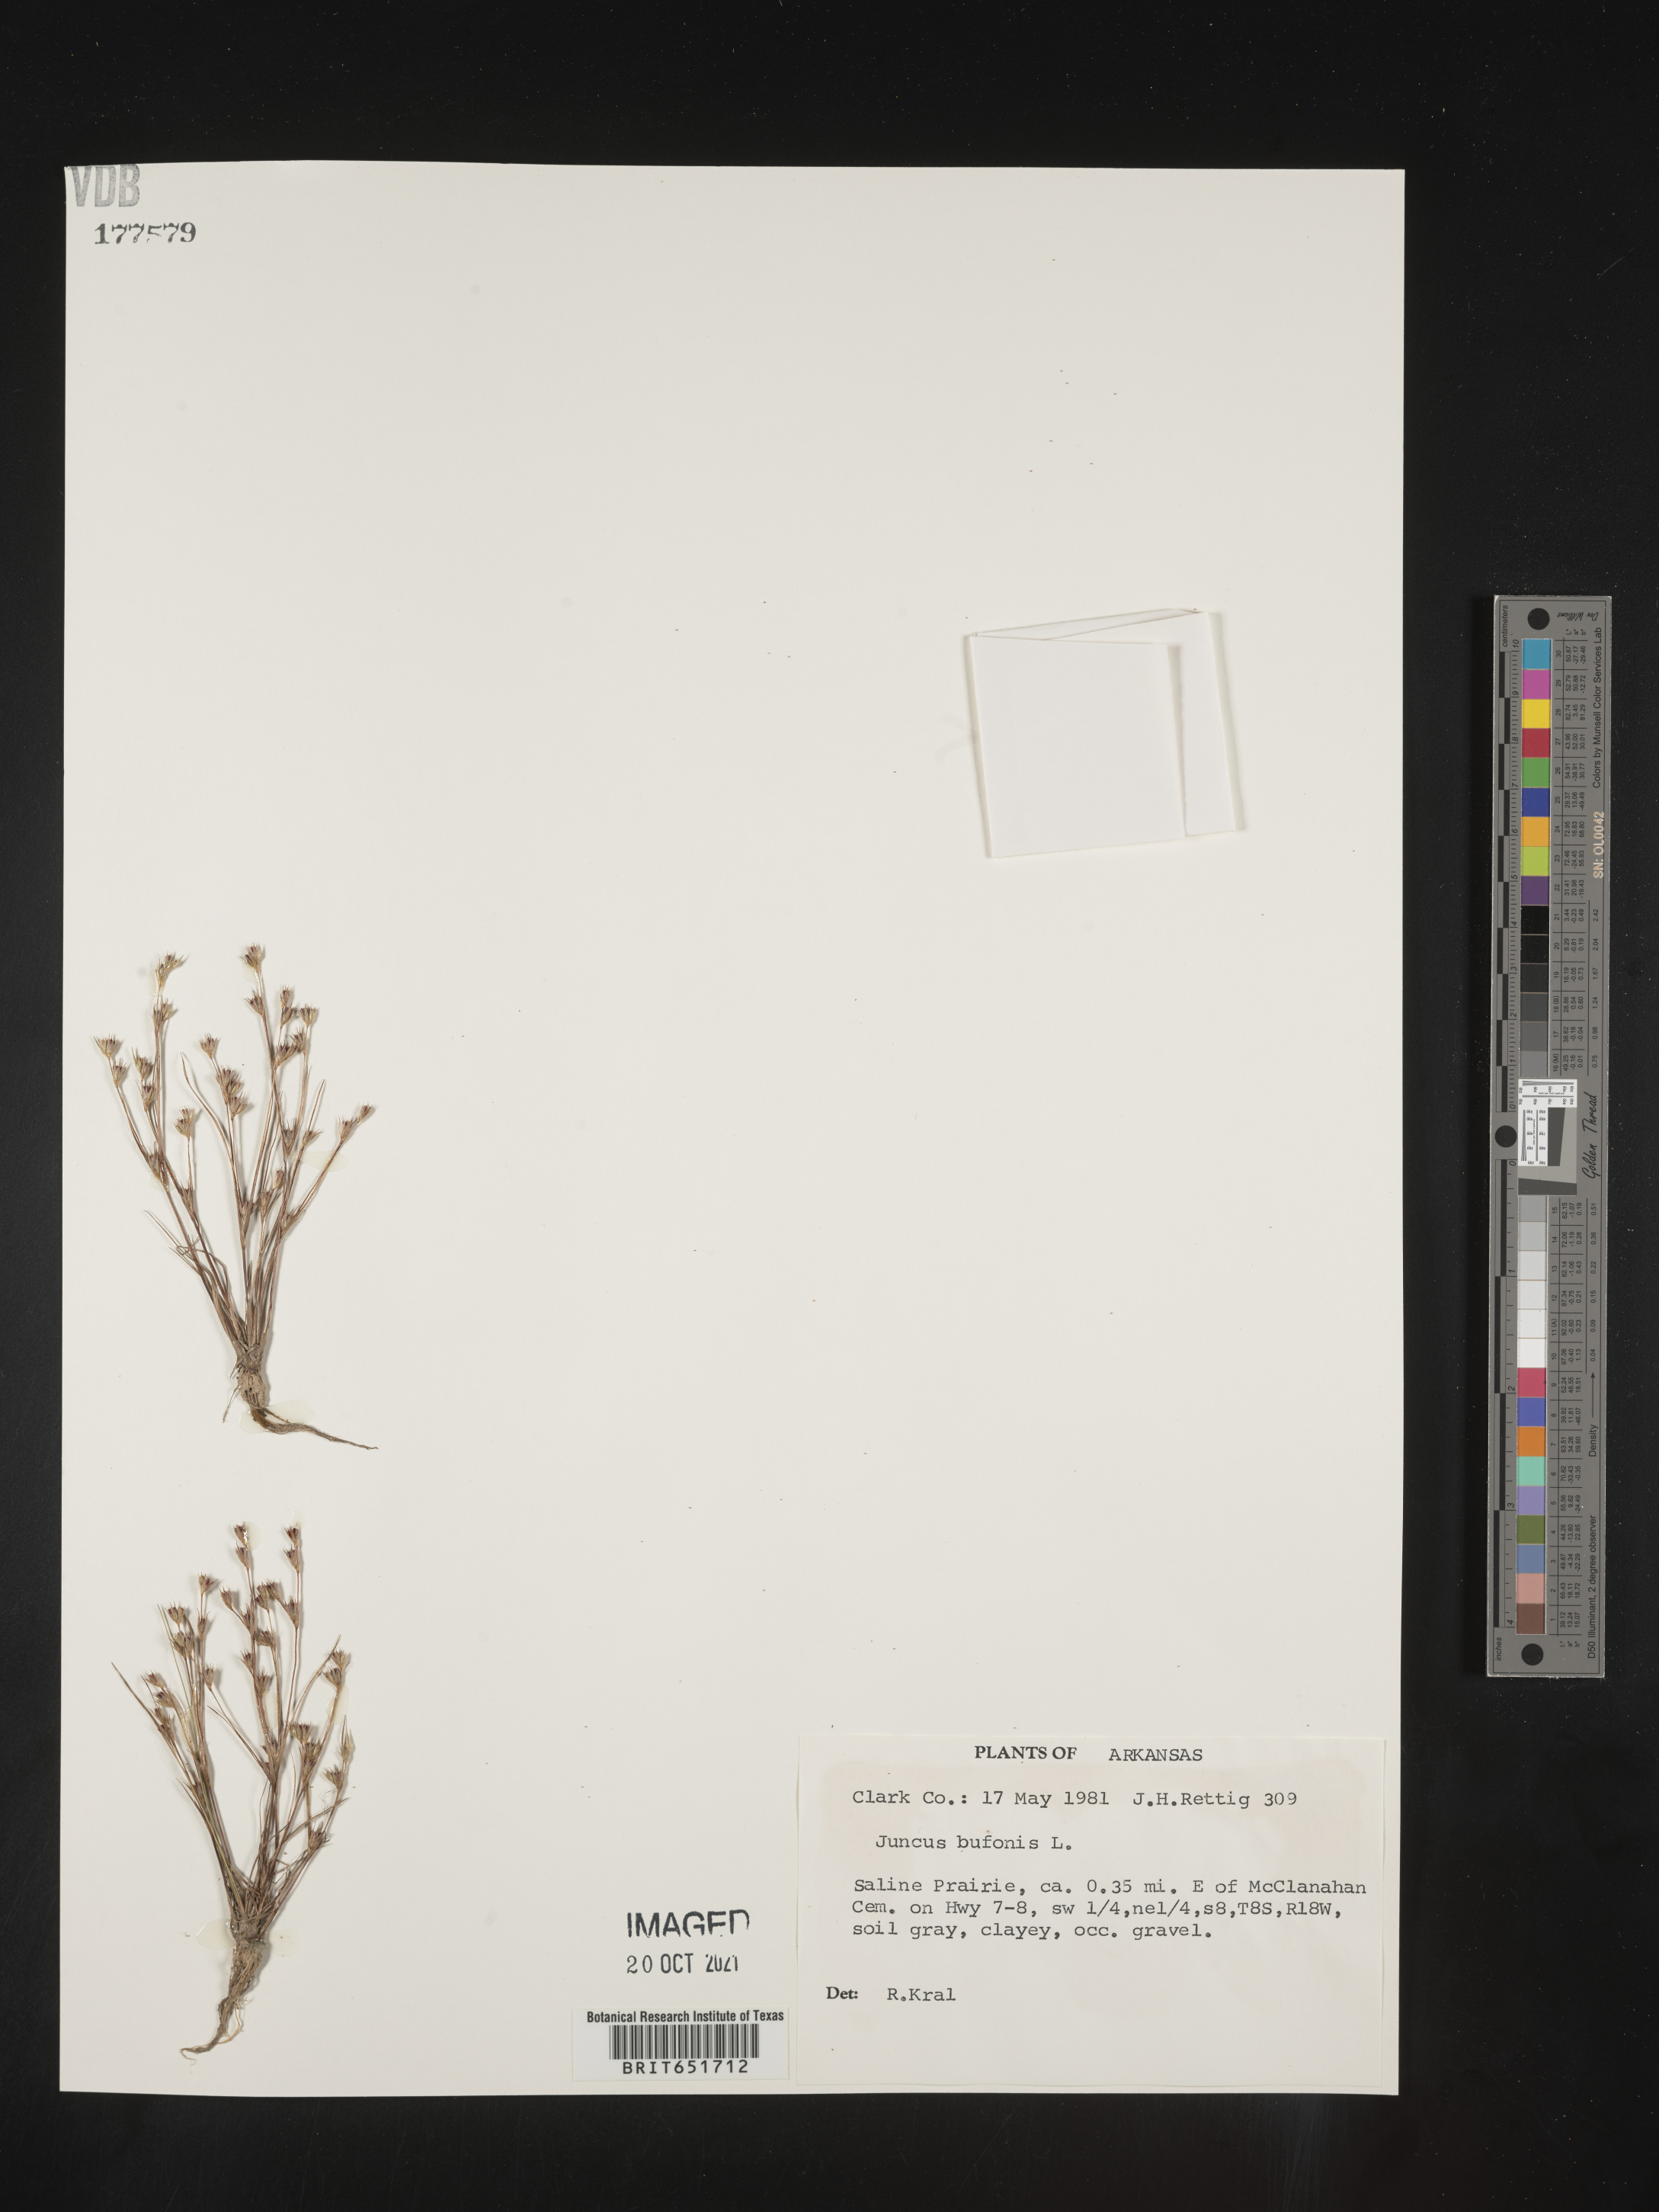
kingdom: Plantae
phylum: Tracheophyta
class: Liliopsida
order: Poales
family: Juncaceae
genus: Juncus
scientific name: Juncus bufonius
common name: Toad rush
